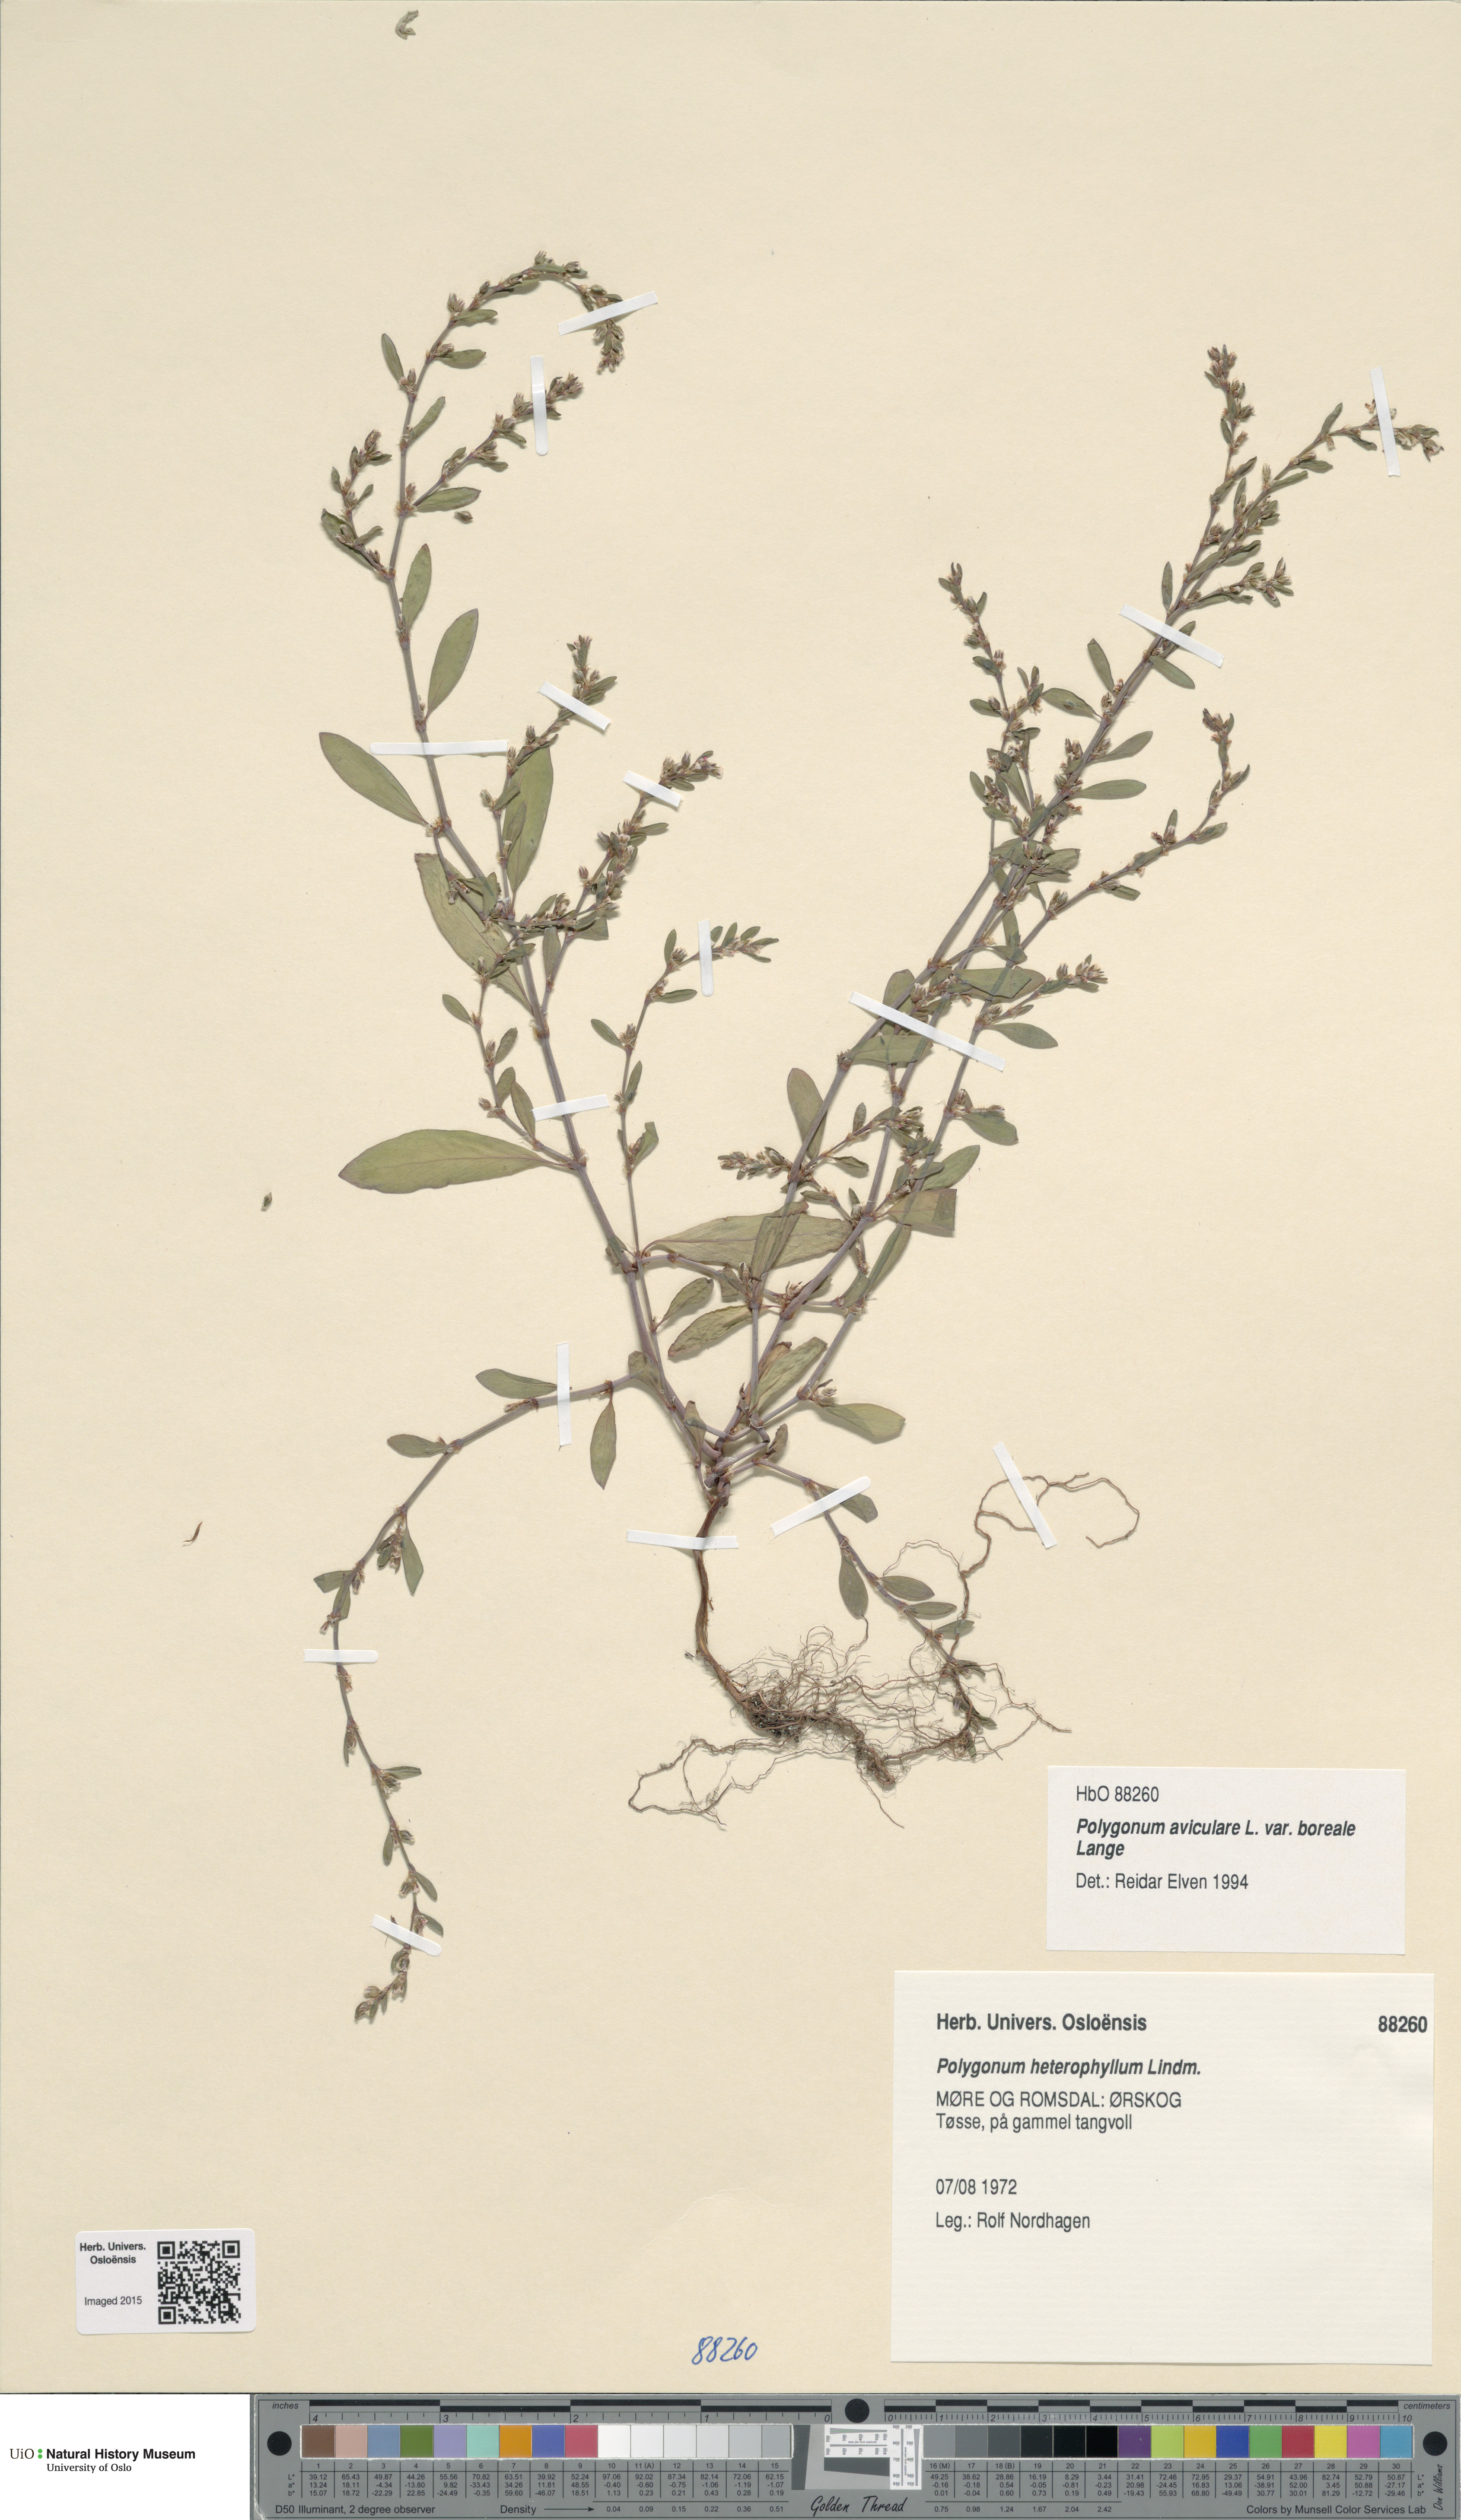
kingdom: Plantae
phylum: Tracheophyta
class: Magnoliopsida
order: Caryophyllales
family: Polygonaceae
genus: Polygonum
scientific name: Polygonum boreale
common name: Northern knotgrass
